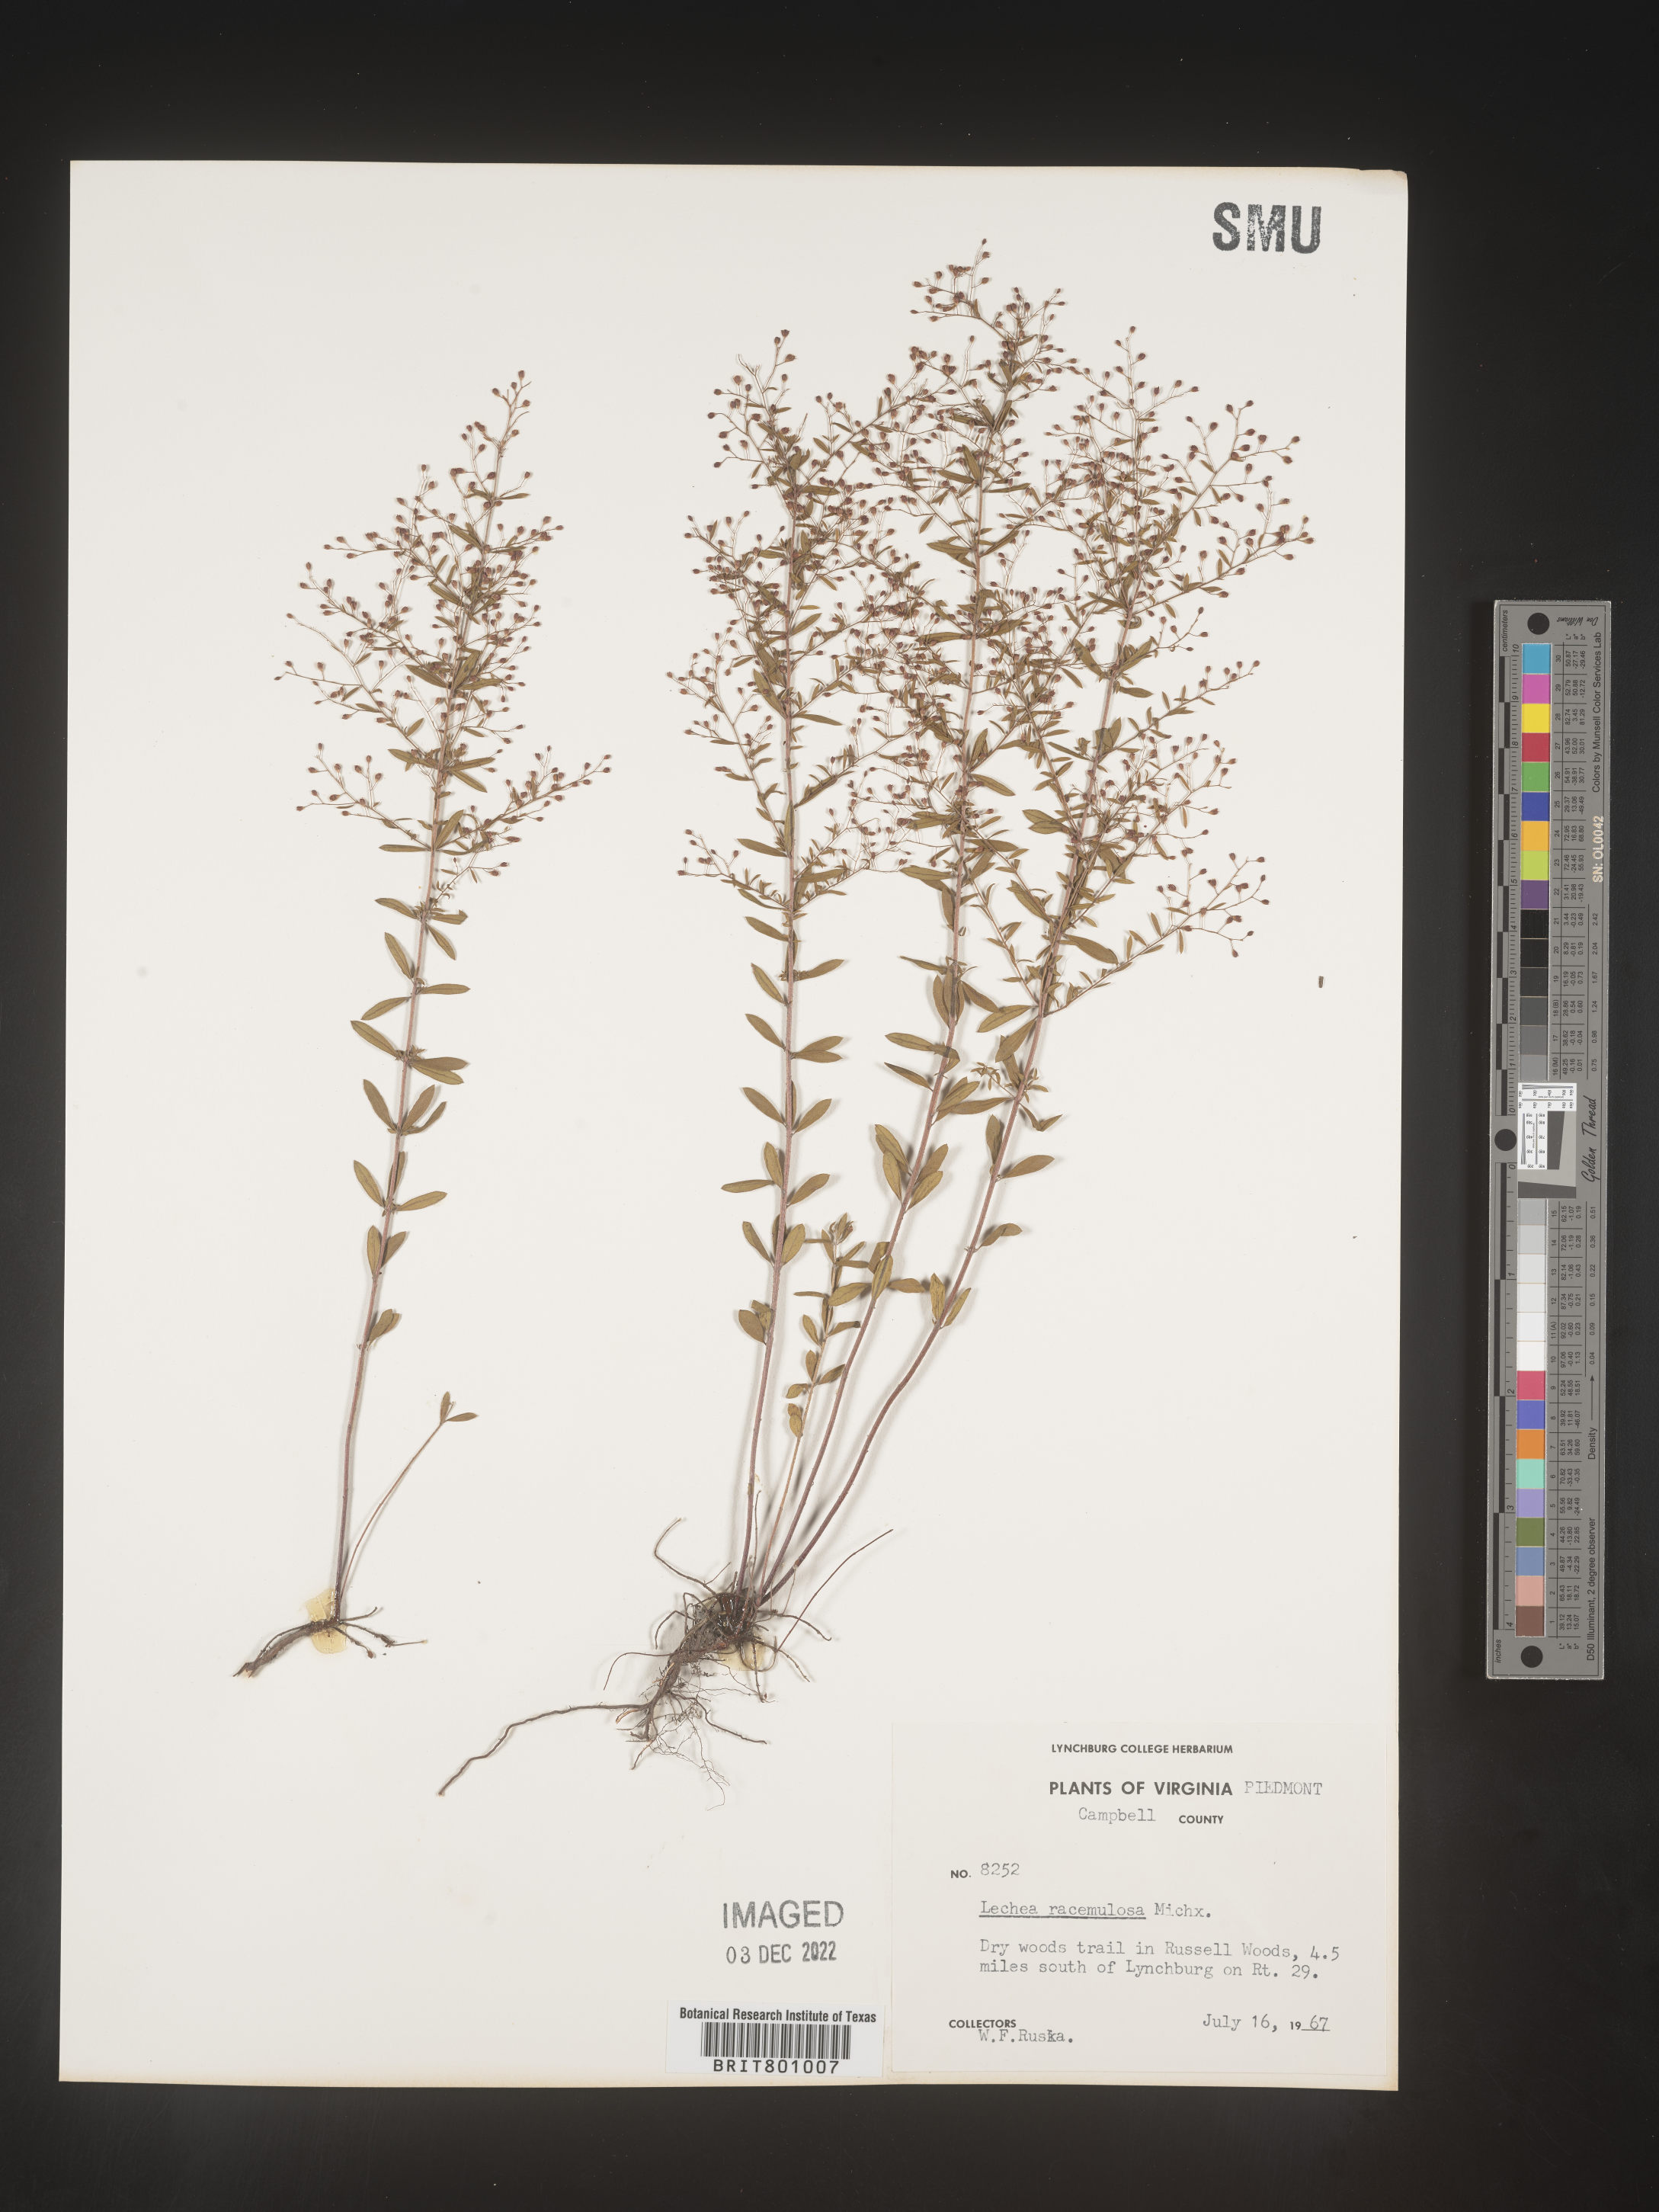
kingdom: Plantae
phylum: Tracheophyta
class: Magnoliopsida
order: Malvales
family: Cistaceae
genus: Lechea
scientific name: Lechea racemulosa
